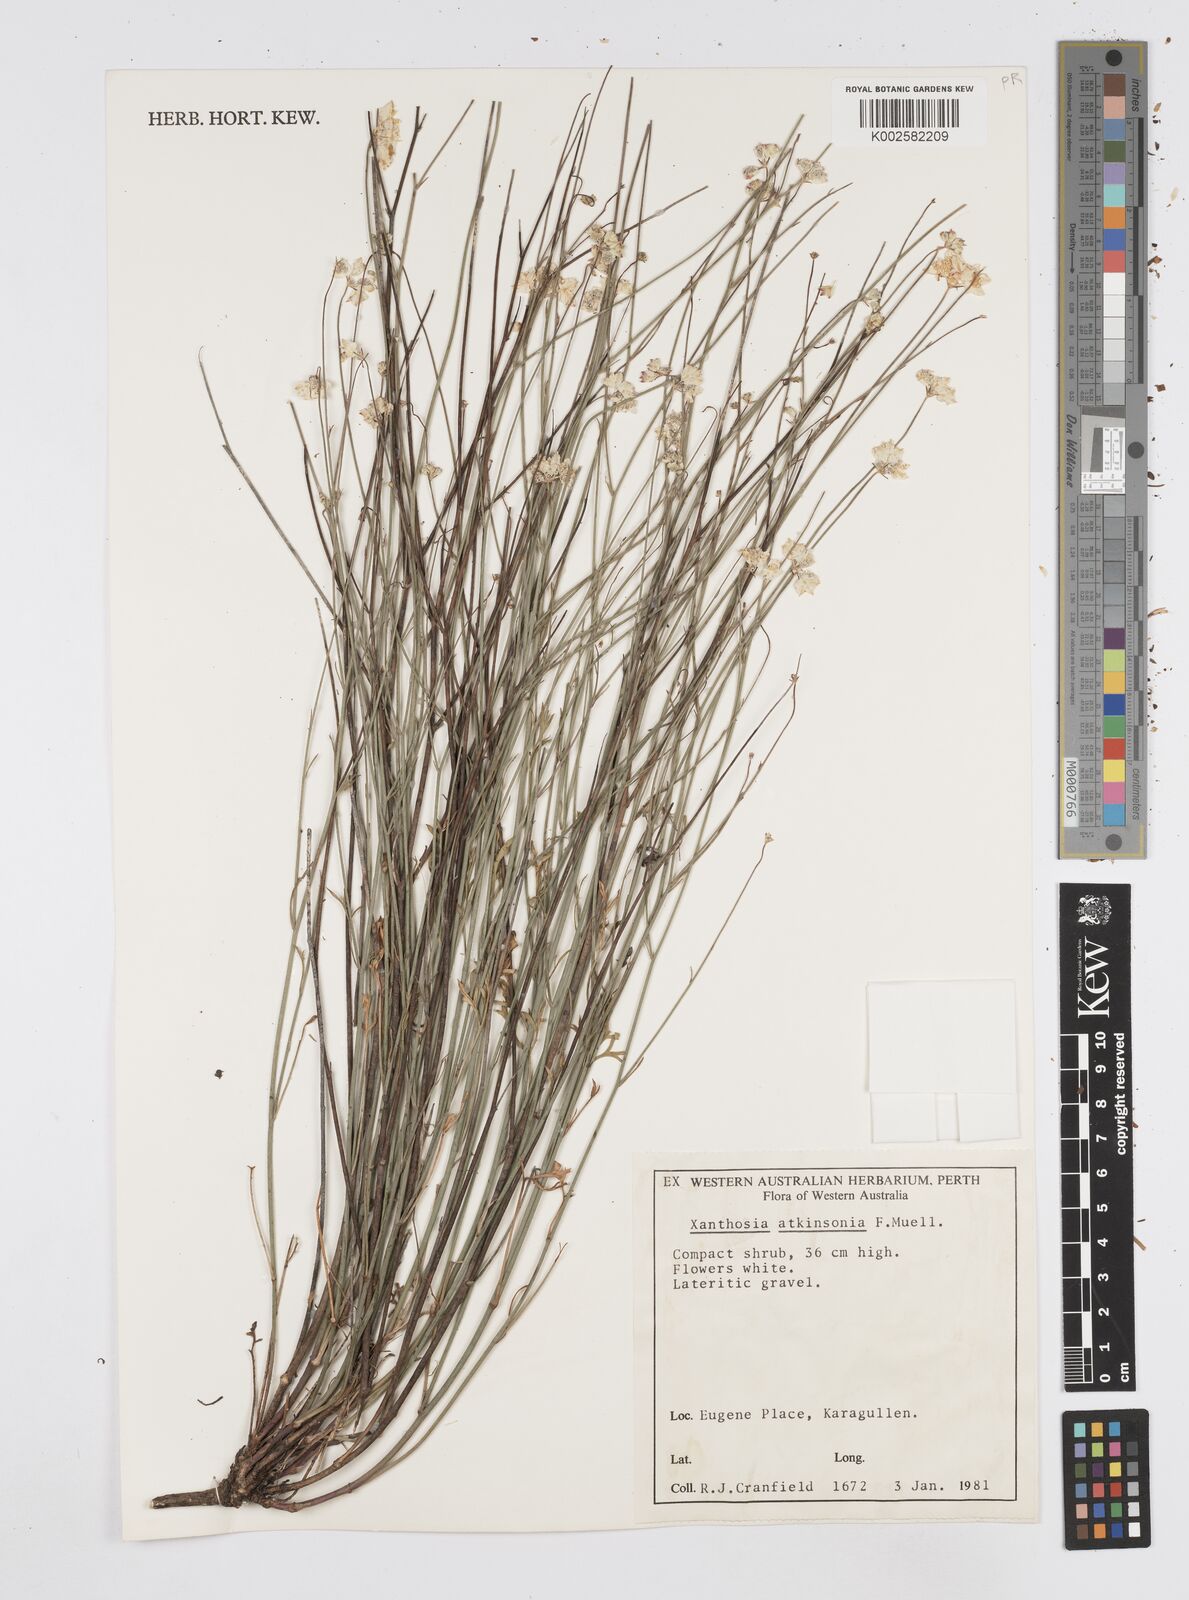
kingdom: Plantae
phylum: Tracheophyta
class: Magnoliopsida
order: Apiales
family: Apiaceae
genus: Xanthosia
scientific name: Xanthosia atkinsoniana
